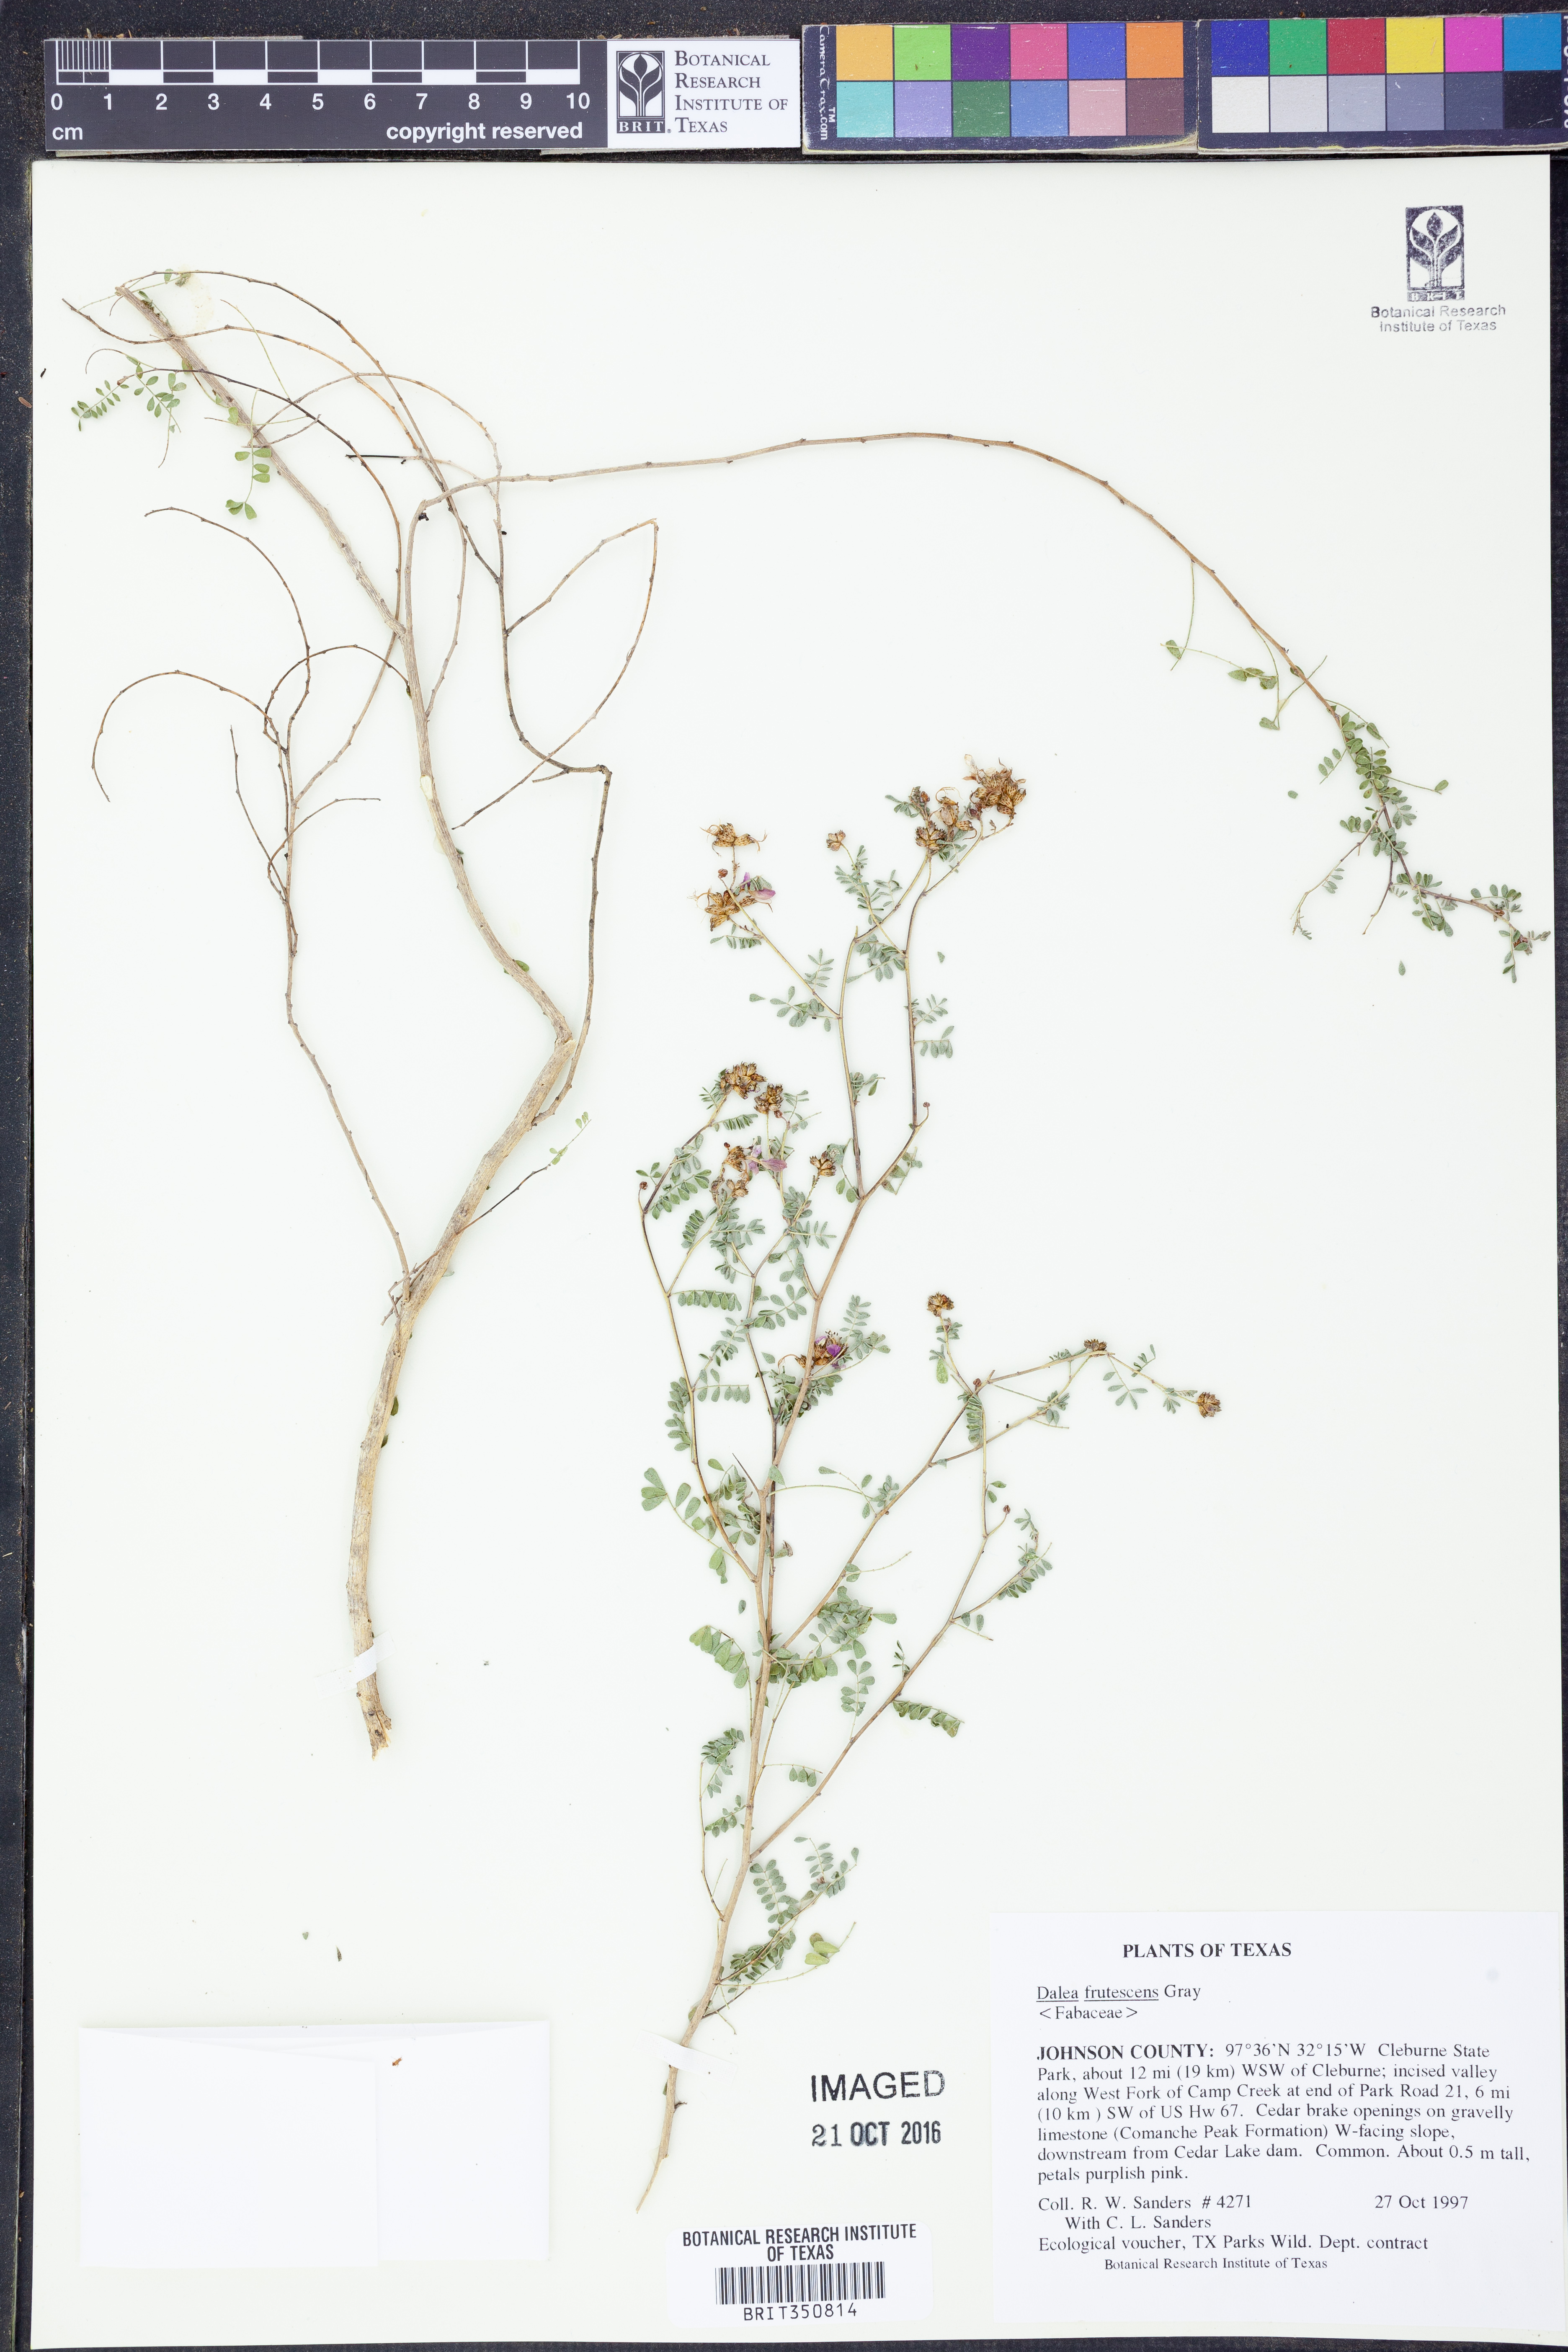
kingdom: Plantae
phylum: Tracheophyta
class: Magnoliopsida
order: Fabales
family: Fabaceae
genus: Dalea
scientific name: Dalea frutescens
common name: Black dalea
